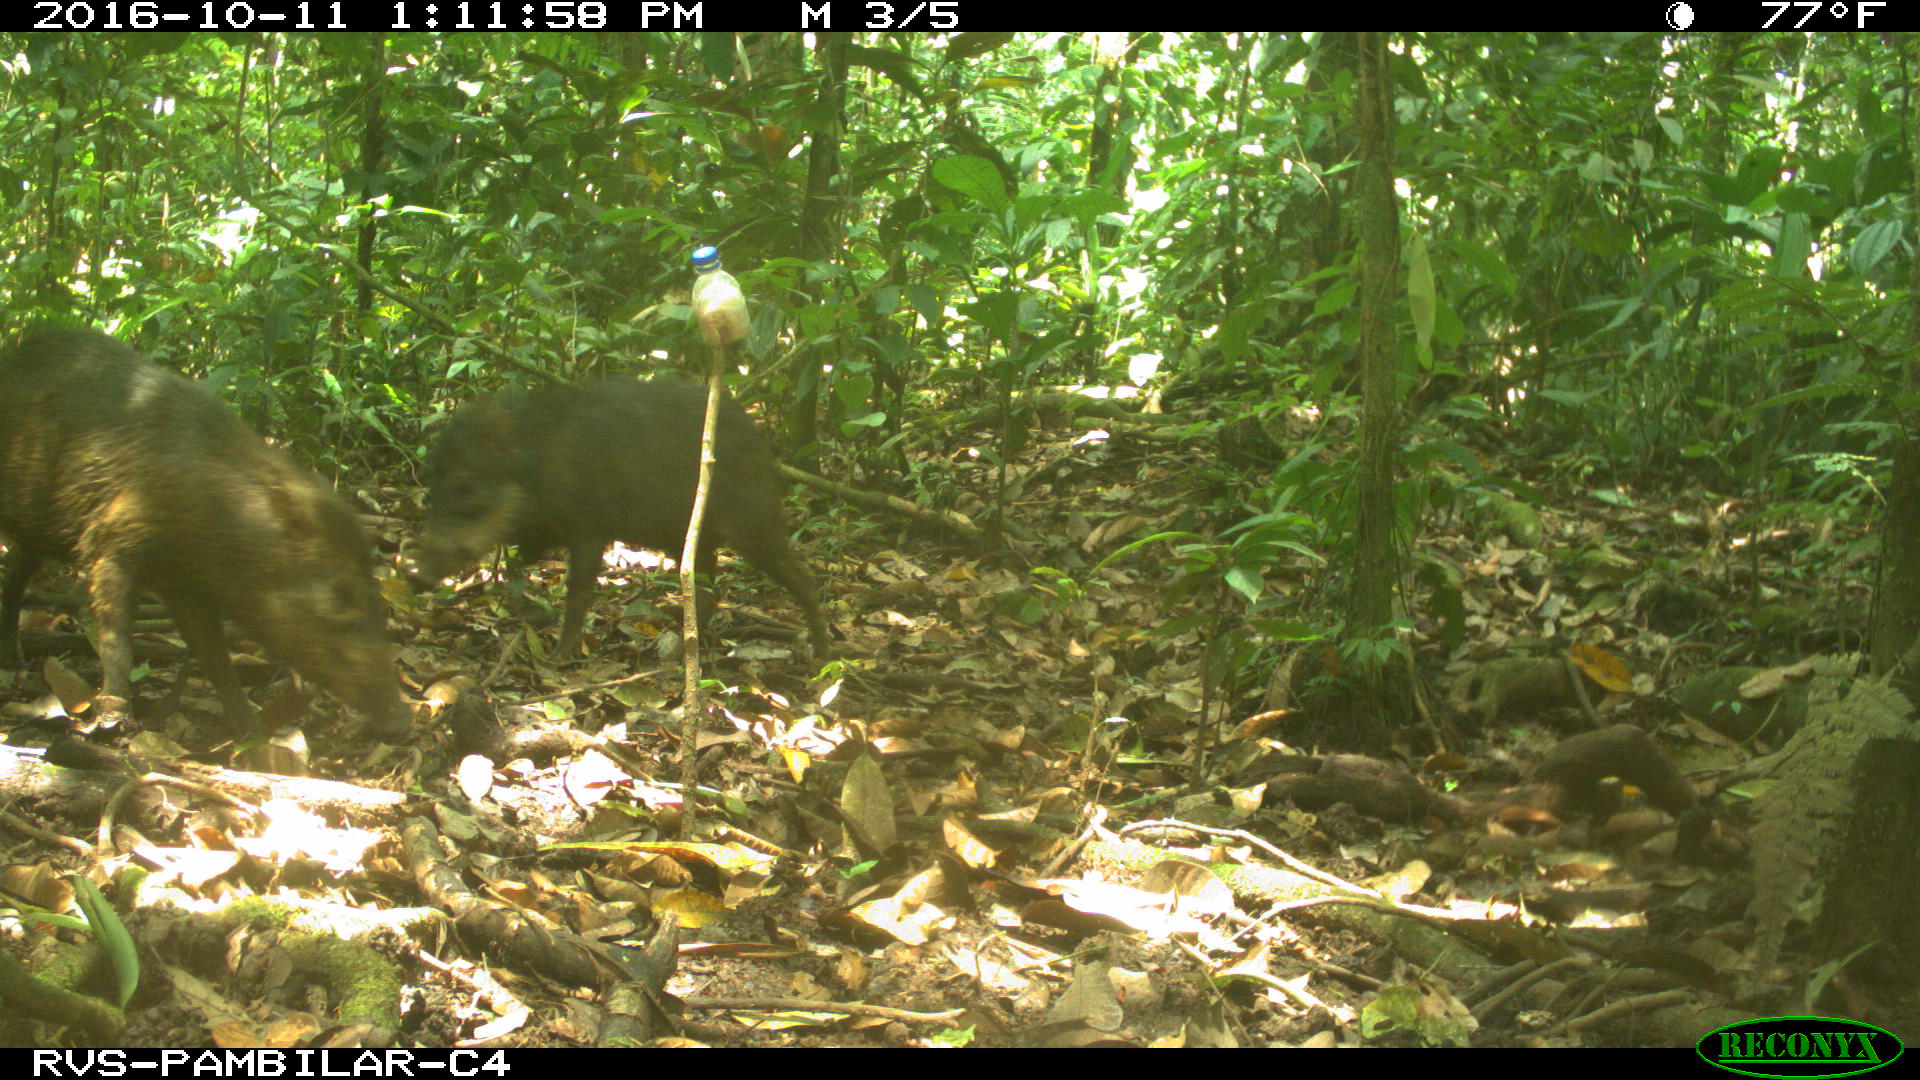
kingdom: Animalia
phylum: Chordata
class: Mammalia
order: Artiodactyla
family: Tayassuidae
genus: Tayassu
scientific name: Tayassu pecari
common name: White-lipped peccary
